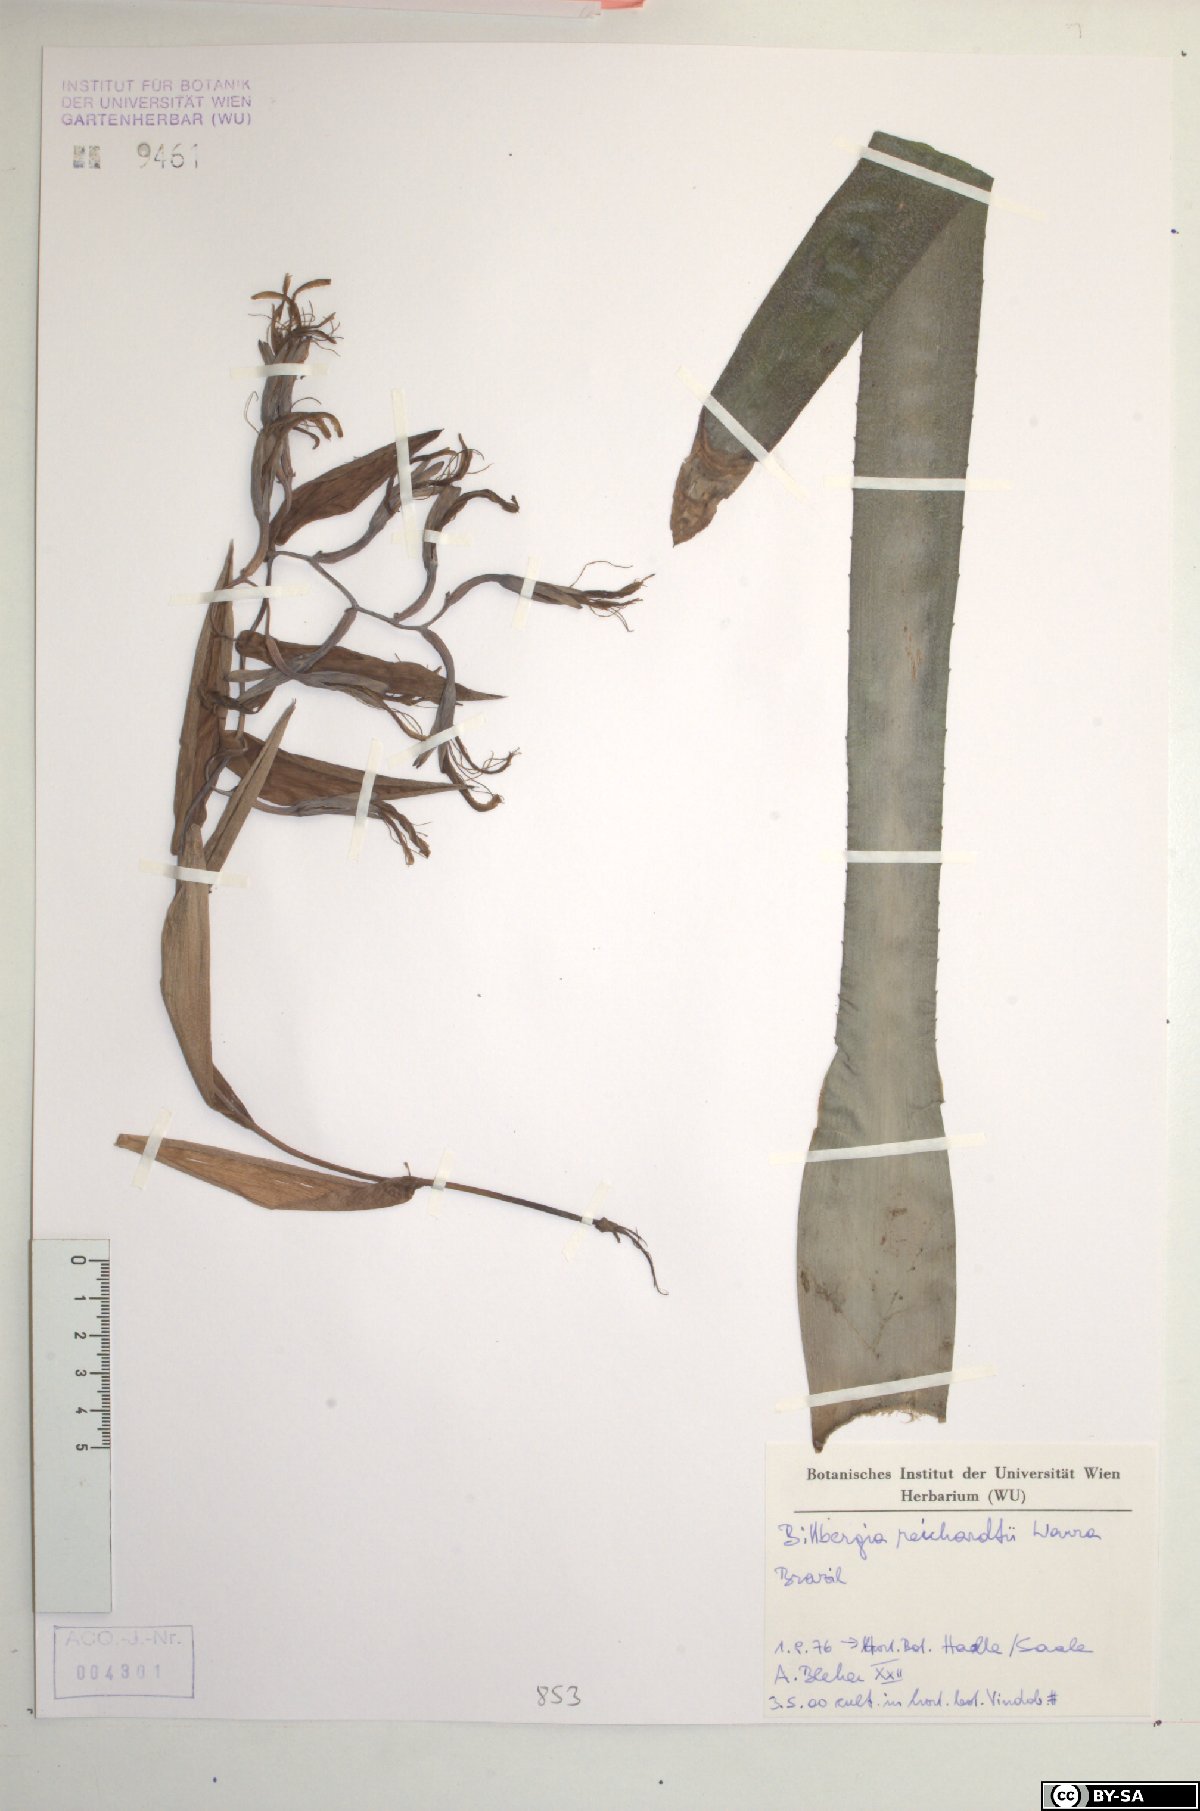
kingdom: Plantae
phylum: Tracheophyta
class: Liliopsida
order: Poales
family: Bromeliaceae
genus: Billbergia
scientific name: Billbergia reichardtii
